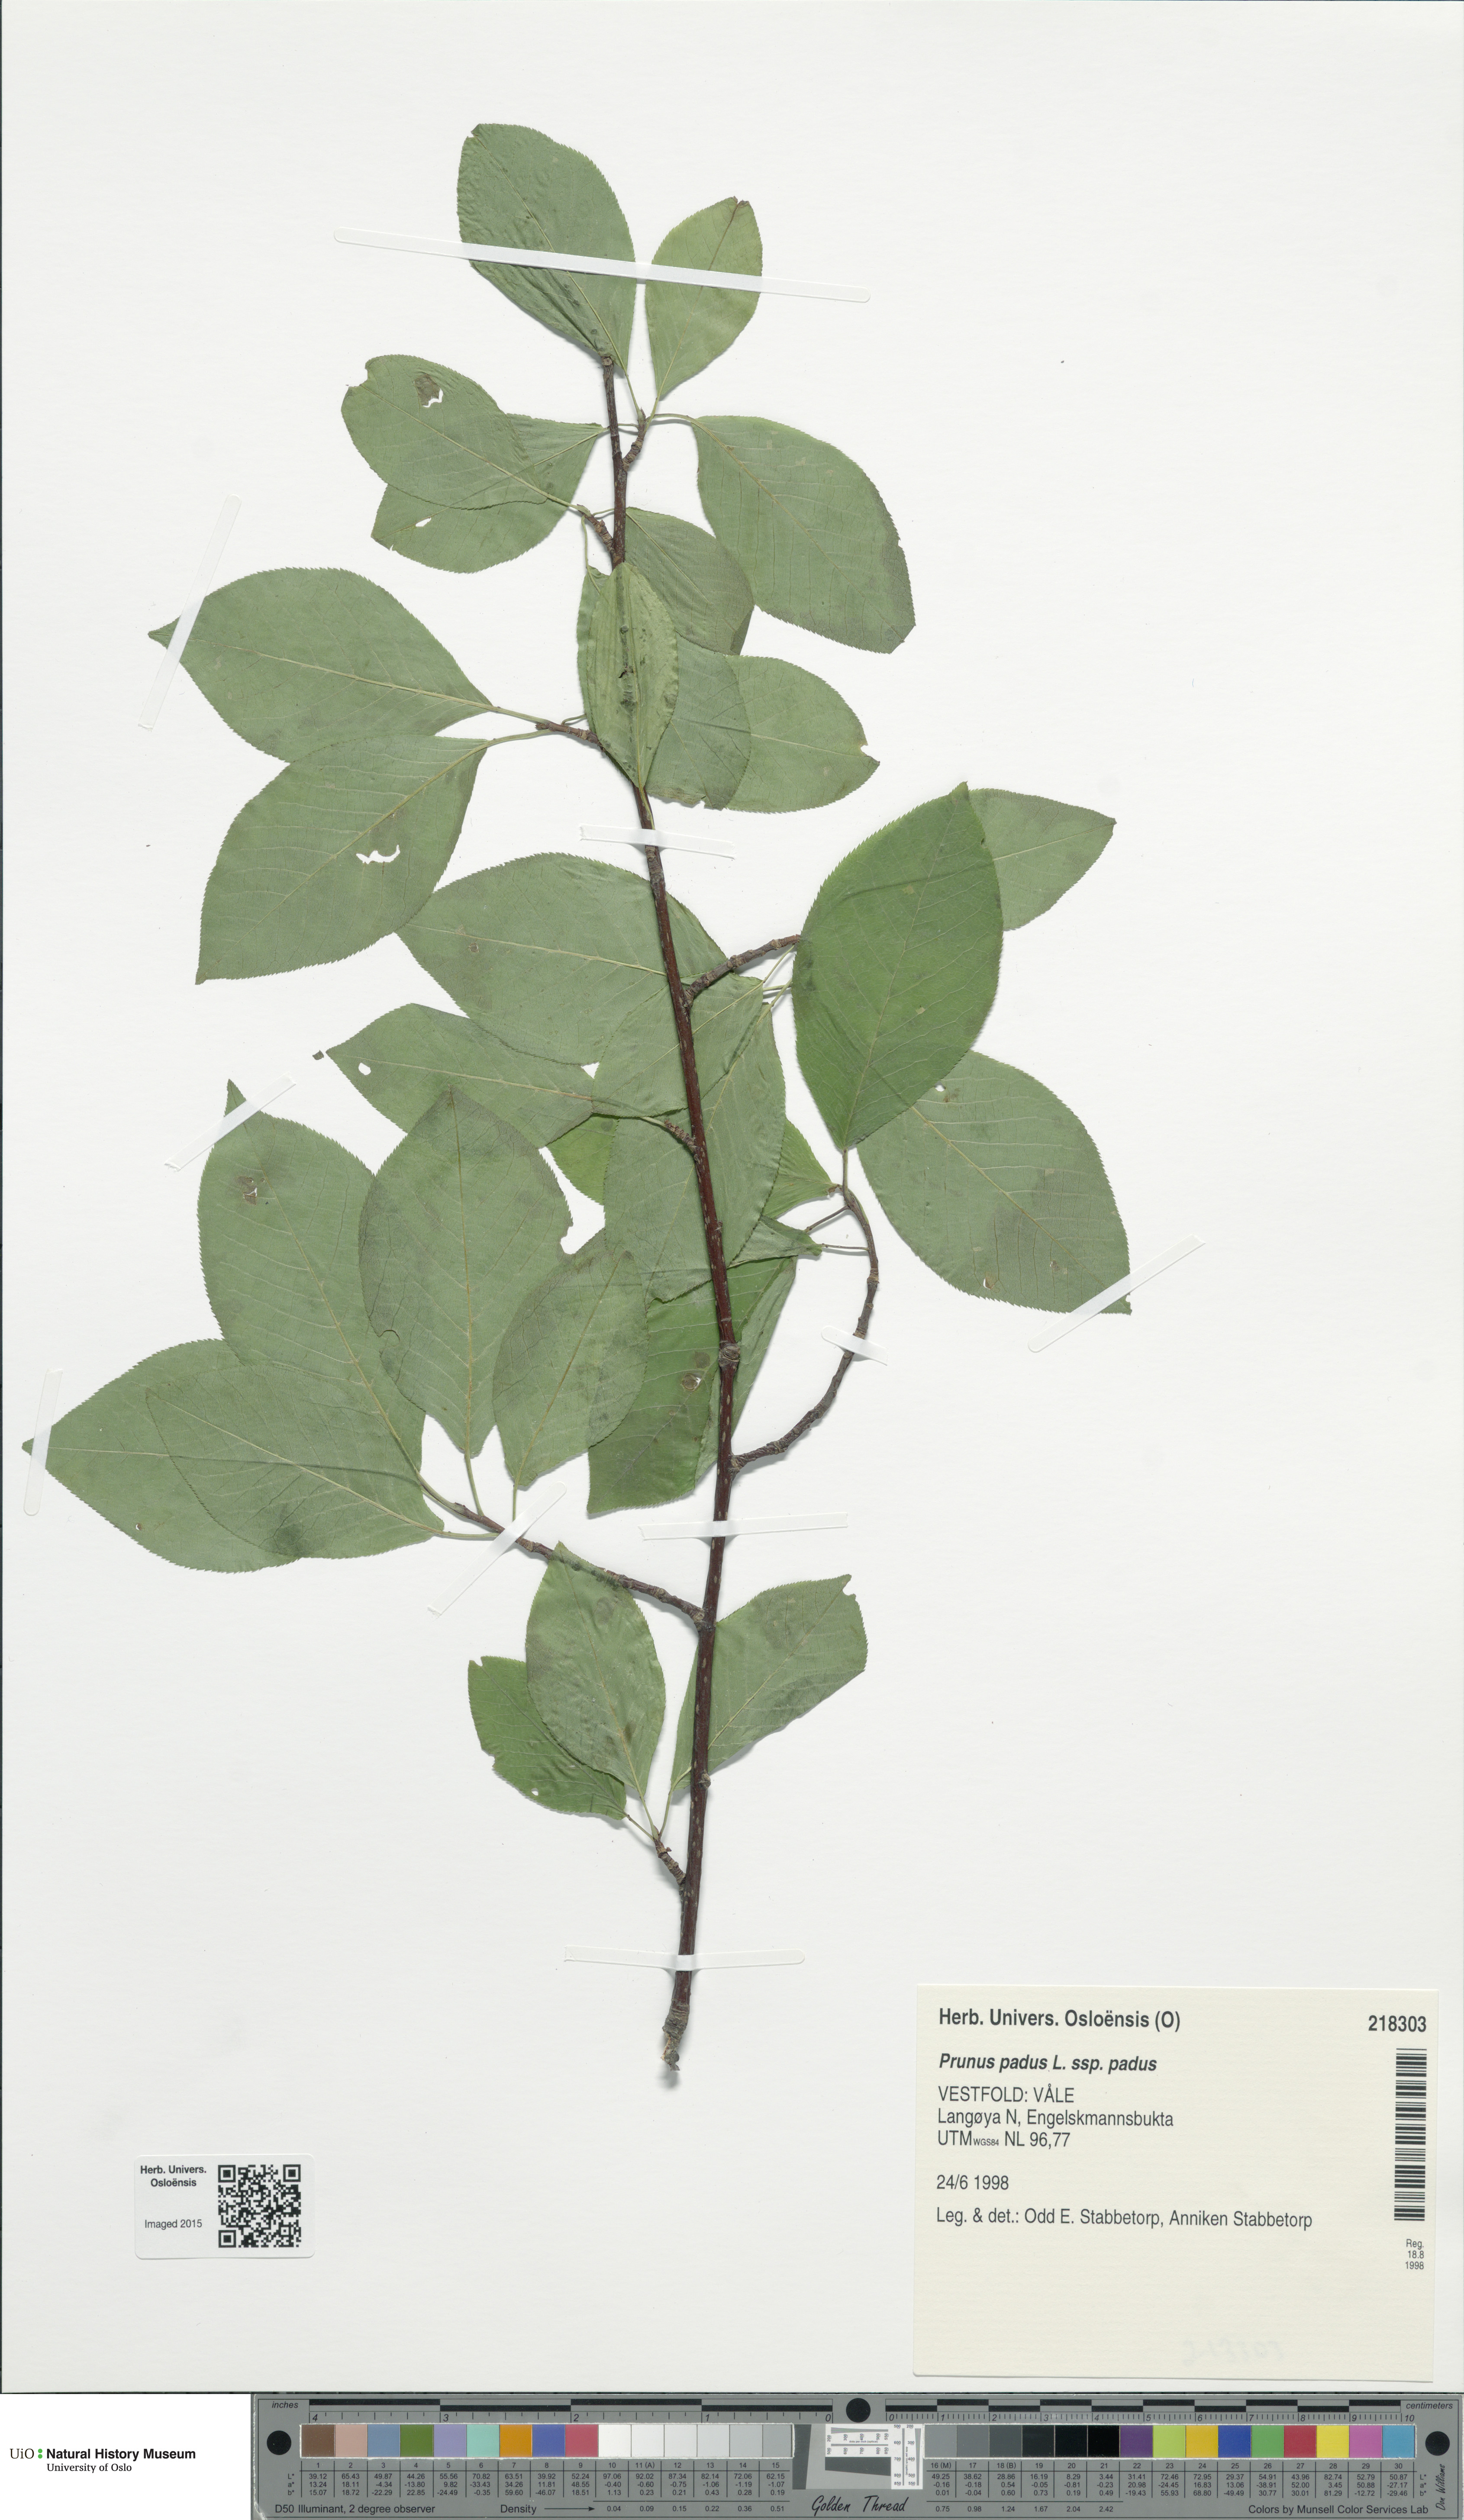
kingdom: Plantae
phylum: Tracheophyta
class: Magnoliopsida
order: Rosales
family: Rosaceae
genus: Prunus
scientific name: Prunus padus
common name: Bird cherry
